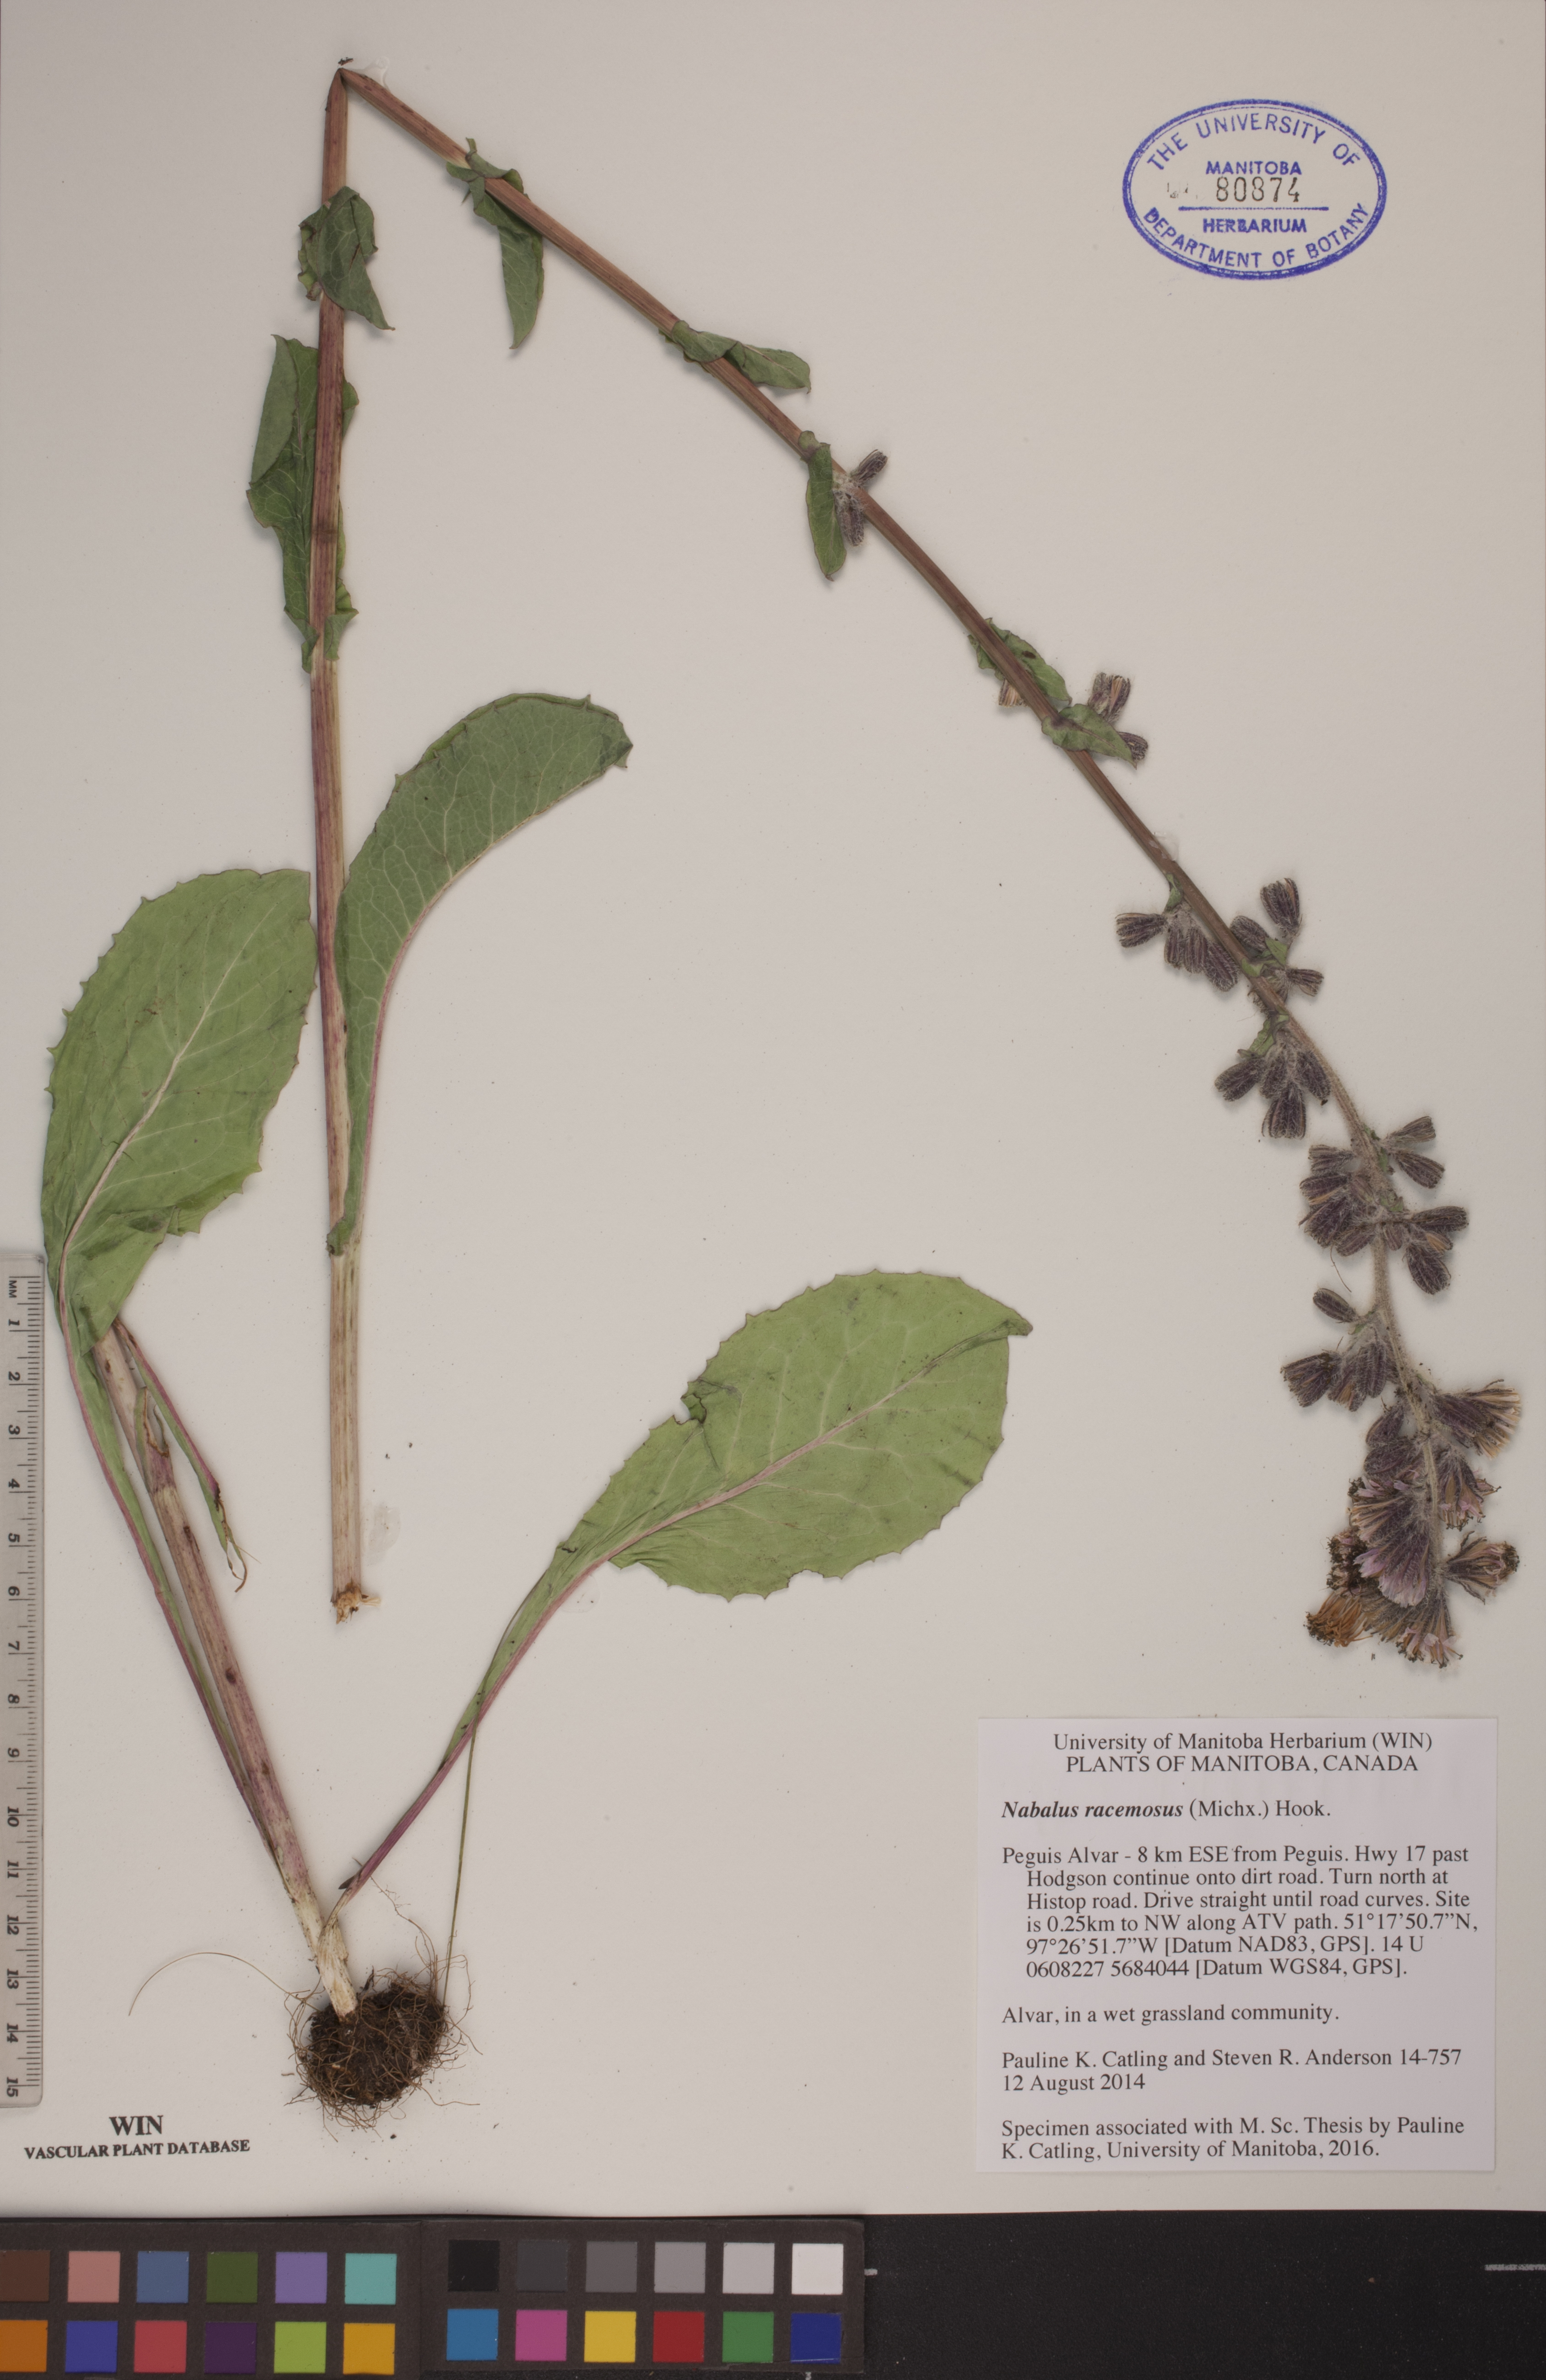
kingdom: Plantae
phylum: Tracheophyta
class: Magnoliopsida
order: Asterales
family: Asteraceae
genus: Nabalus
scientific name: Nabalus racemosus
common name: Glaucous white lettuce
